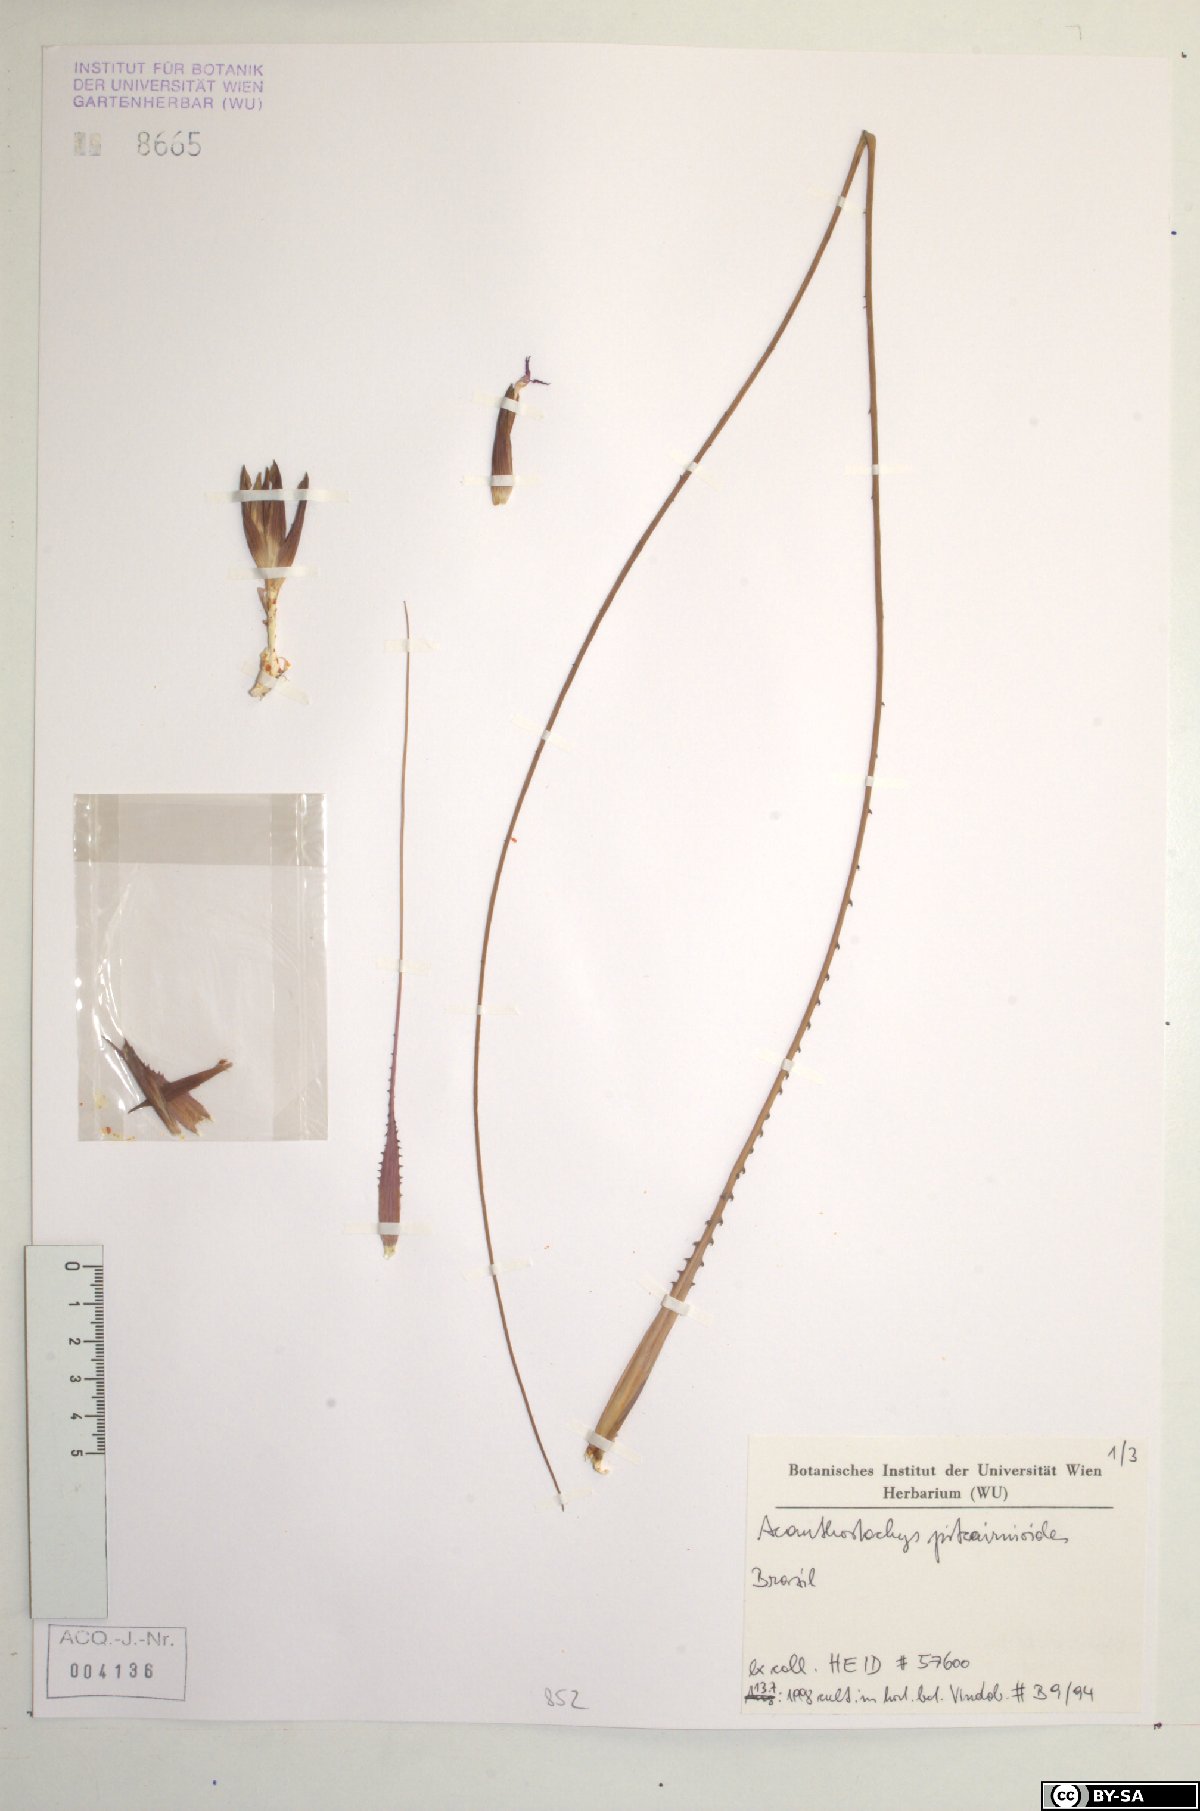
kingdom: Plantae
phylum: Tracheophyta
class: Liliopsida
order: Poales
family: Bromeliaceae
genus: Acanthostachys
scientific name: Acanthostachys pitcairnioides
